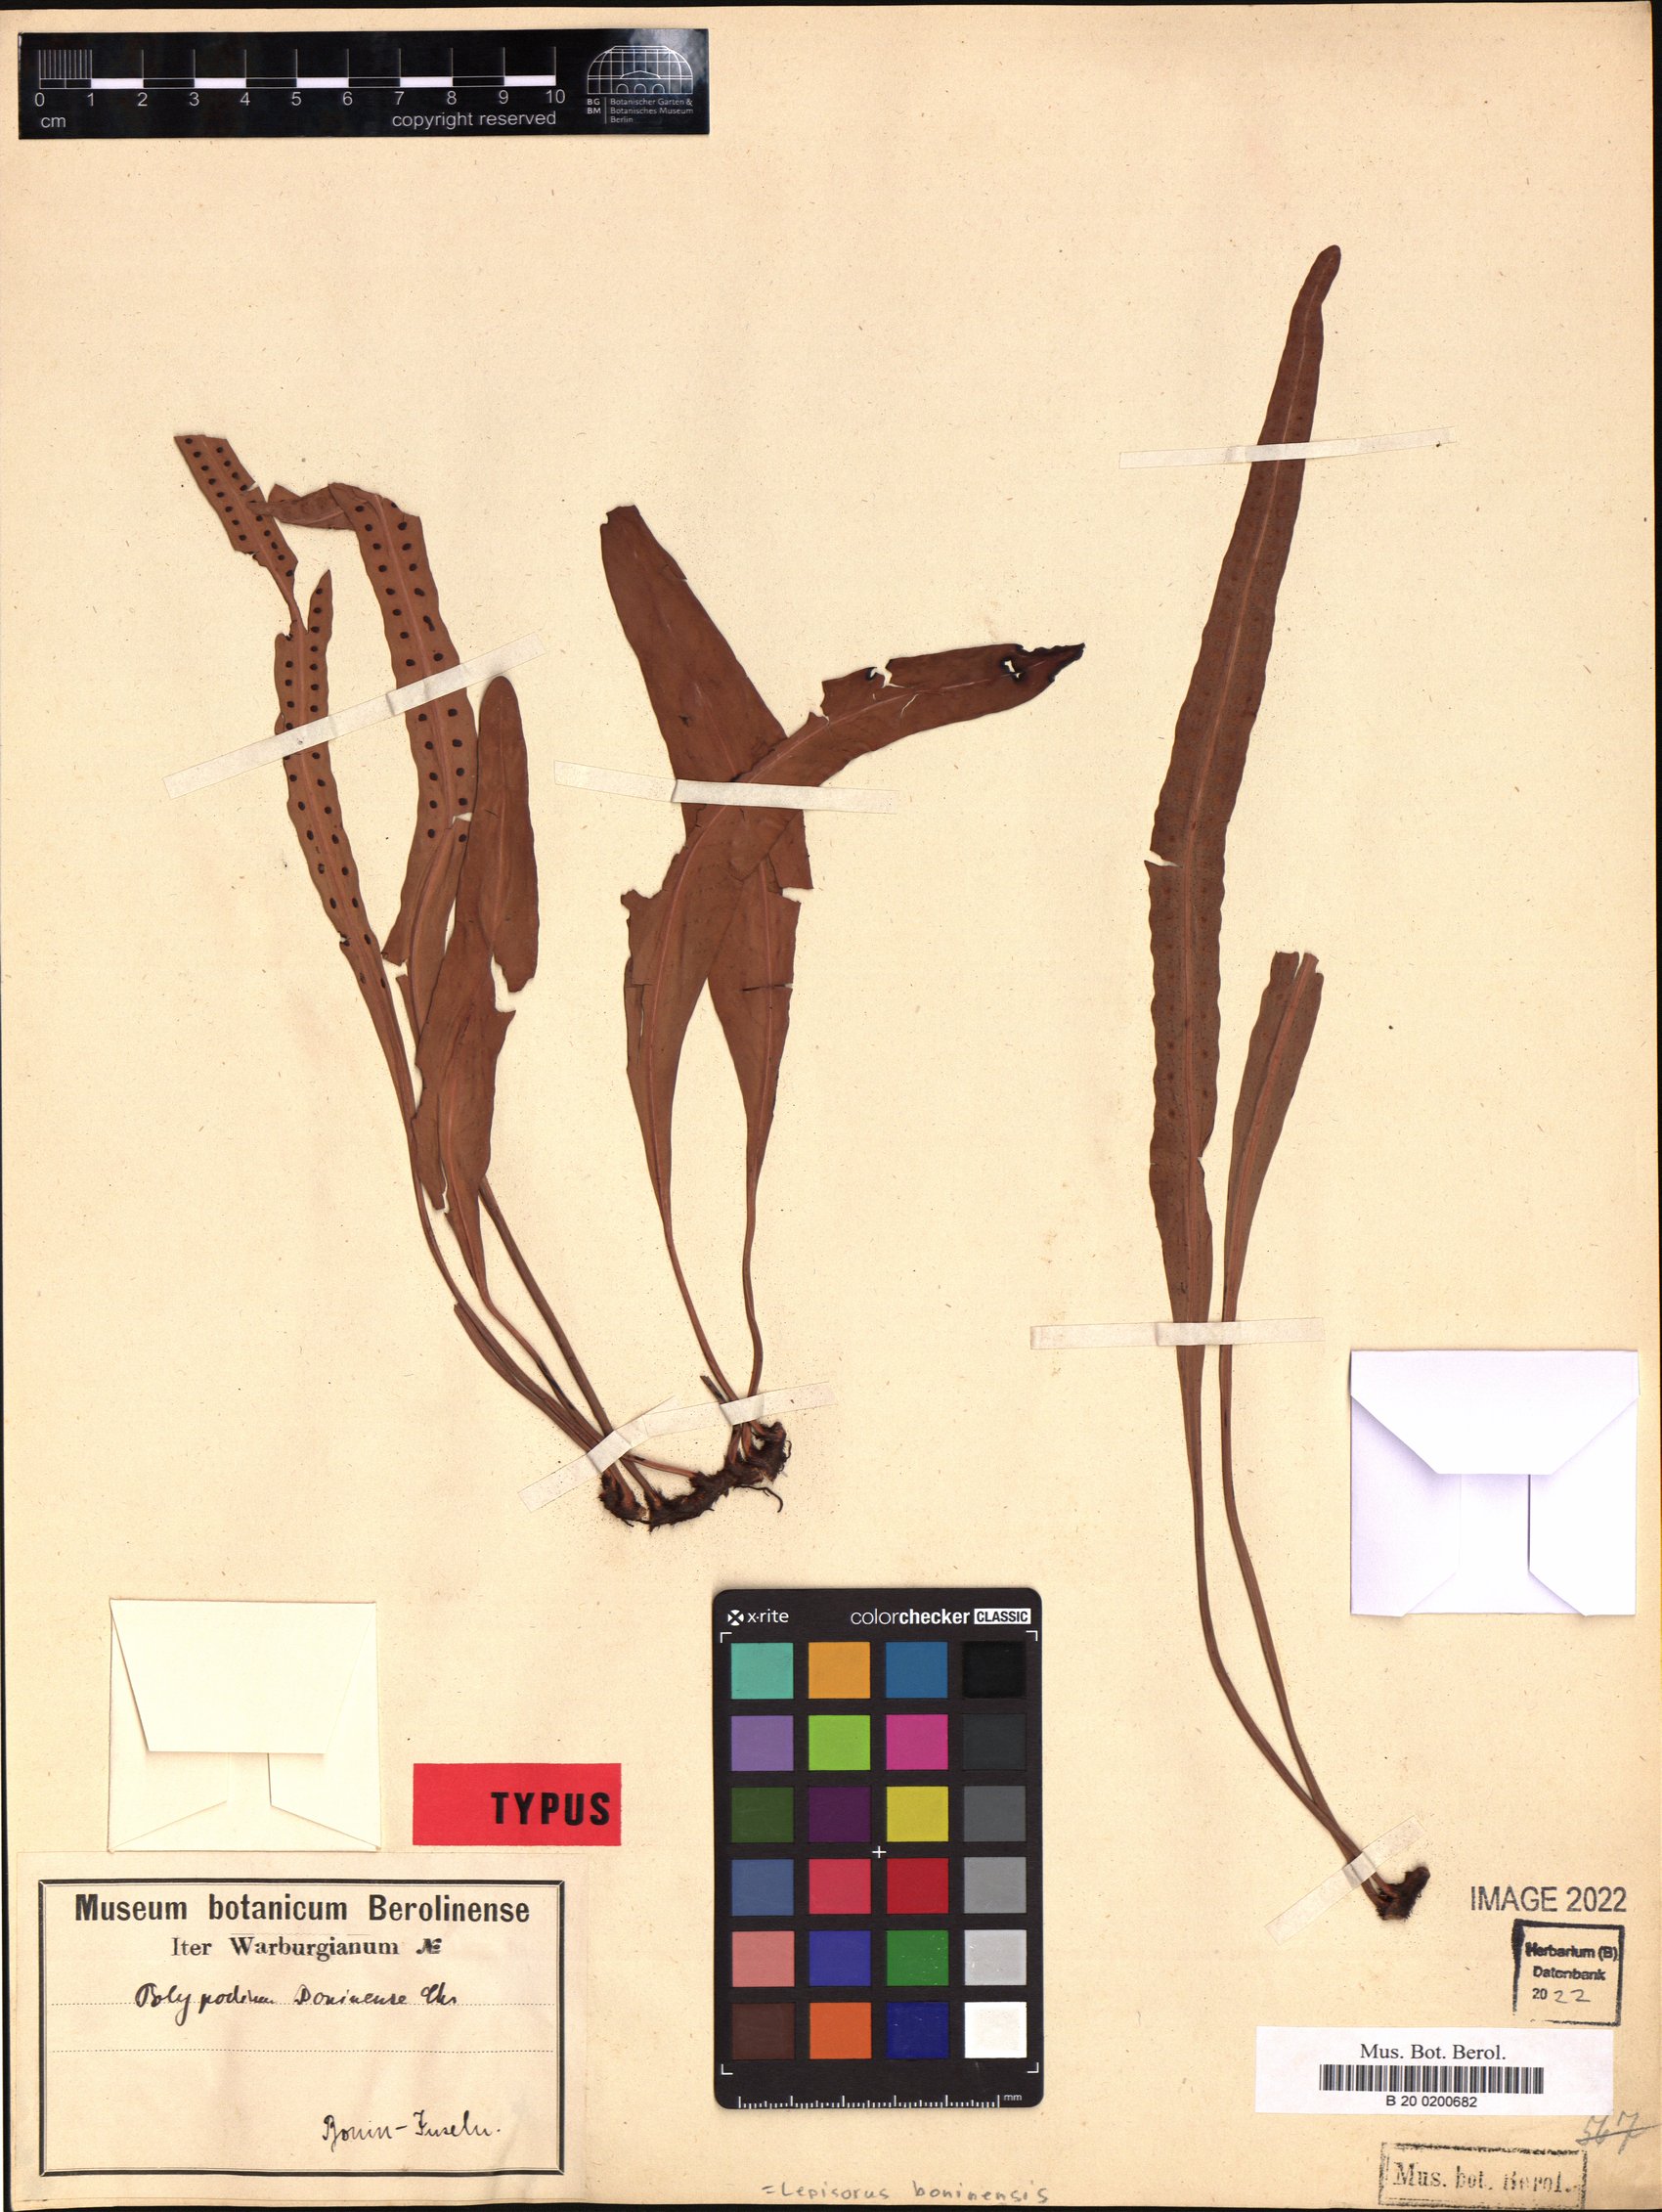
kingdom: Plantae
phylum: Tracheophyta
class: Polypodiopsida
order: Polypodiales
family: Polypodiaceae
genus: Lepisorus
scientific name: Lepisorus boninensis
